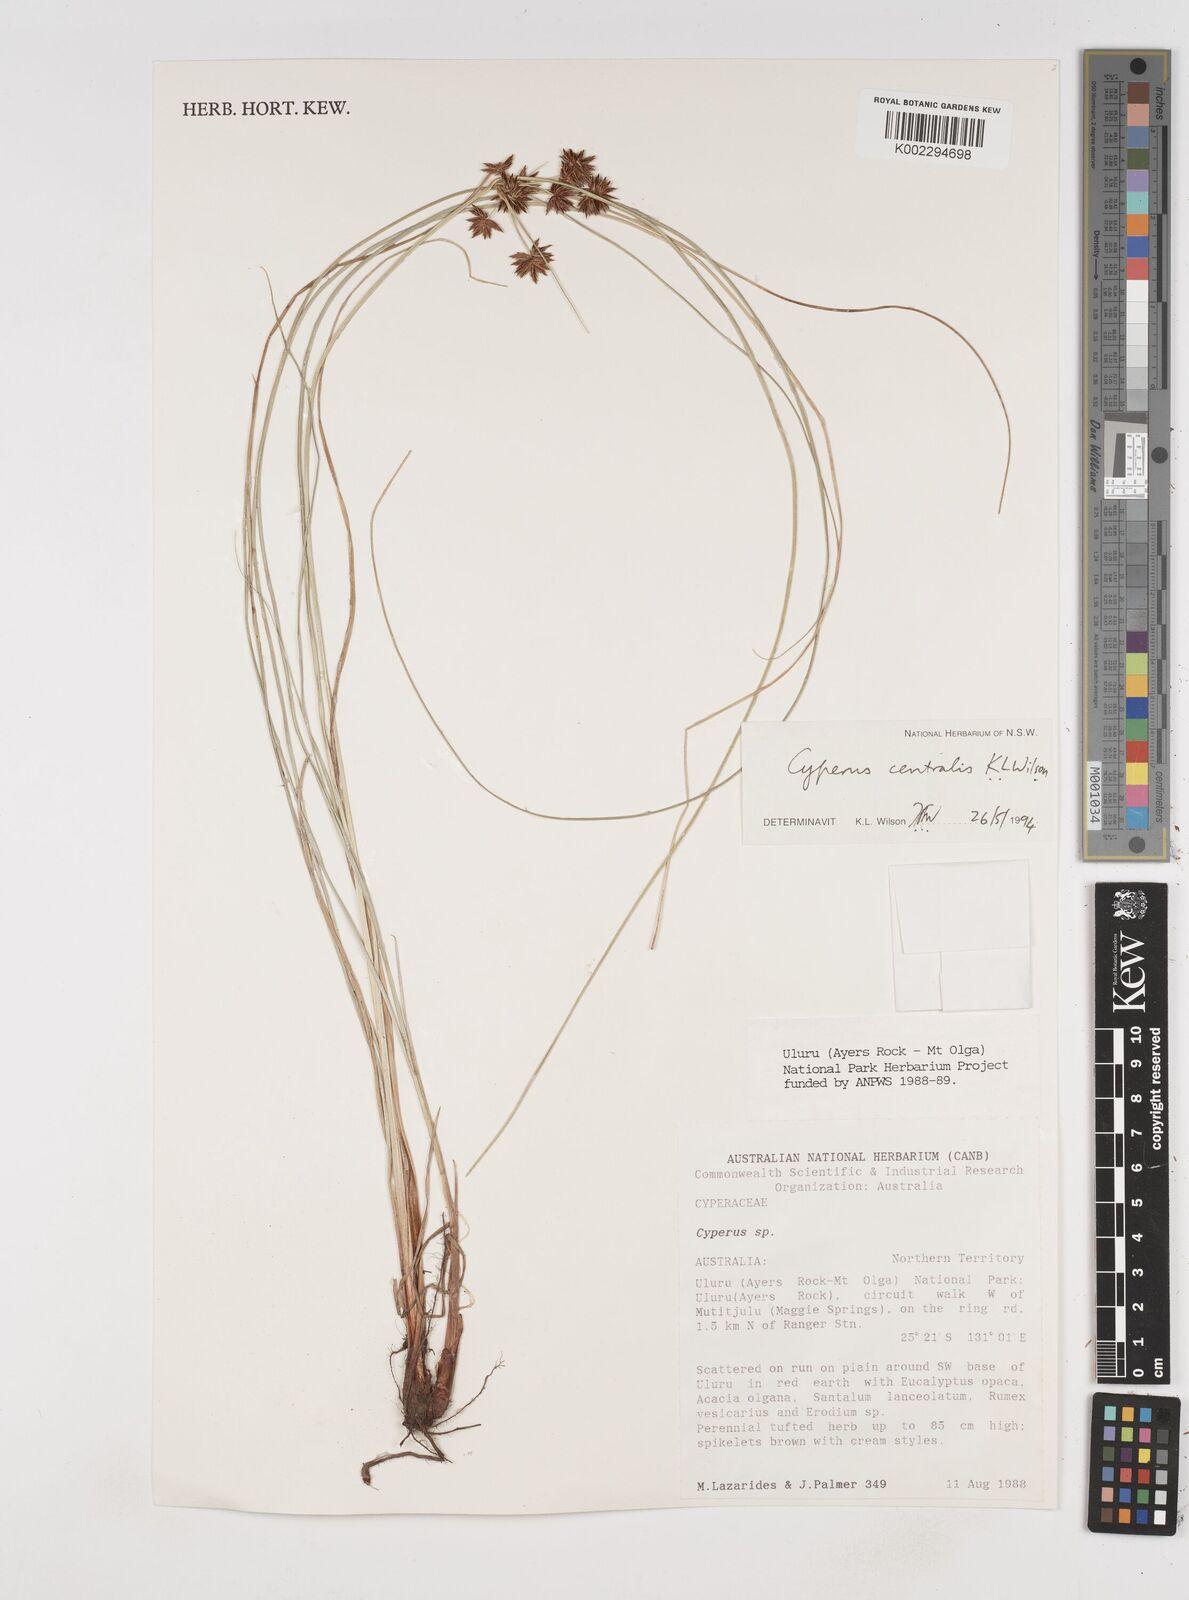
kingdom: Plantae
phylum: Tracheophyta
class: Liliopsida
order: Poales
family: Cyperaceae
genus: Cyperus
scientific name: Cyperus centralis
